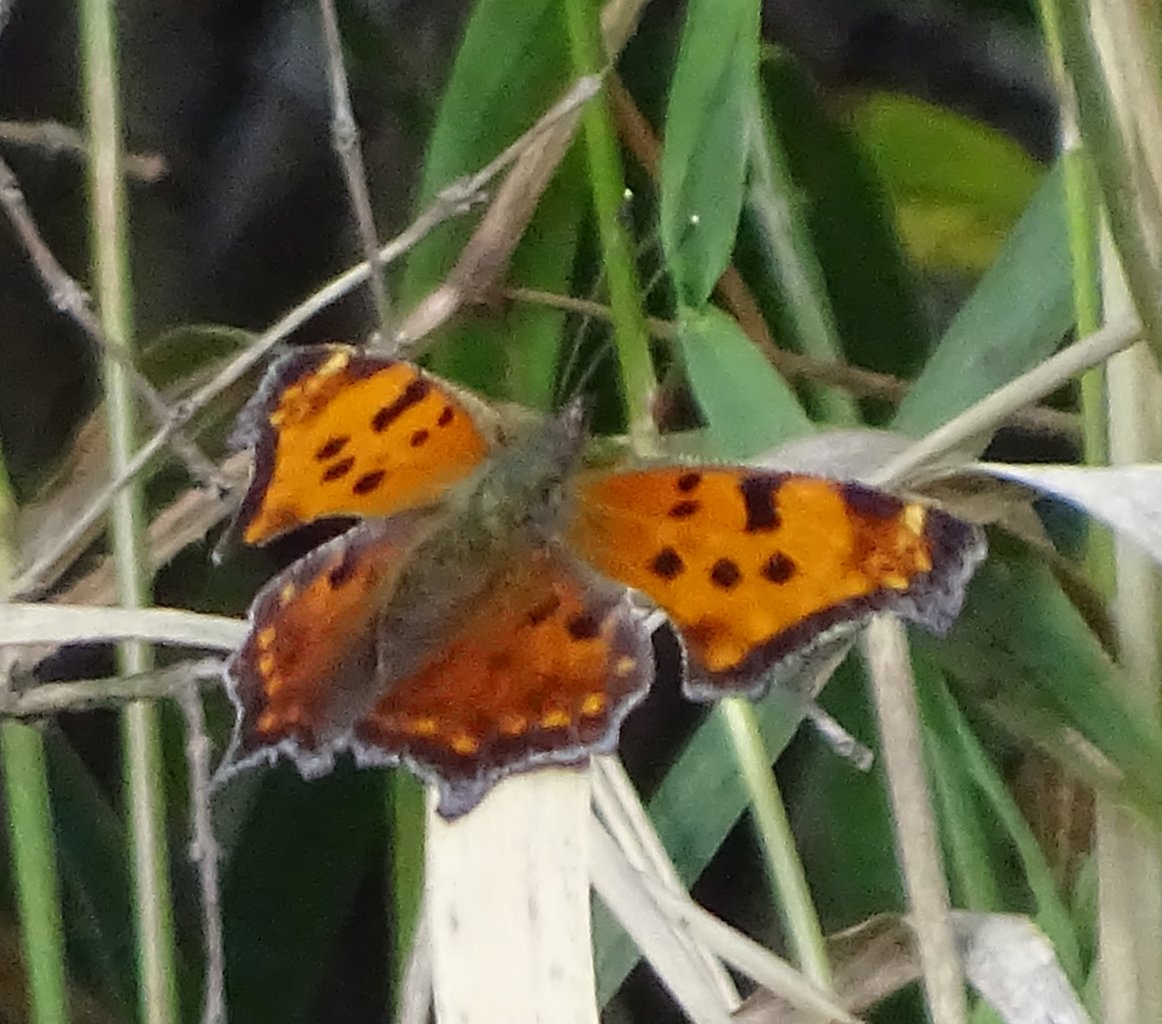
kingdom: Animalia
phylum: Arthropoda
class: Insecta
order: Lepidoptera
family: Nymphalidae
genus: Polygonia
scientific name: Polygonia comma
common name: Eastern Comma
